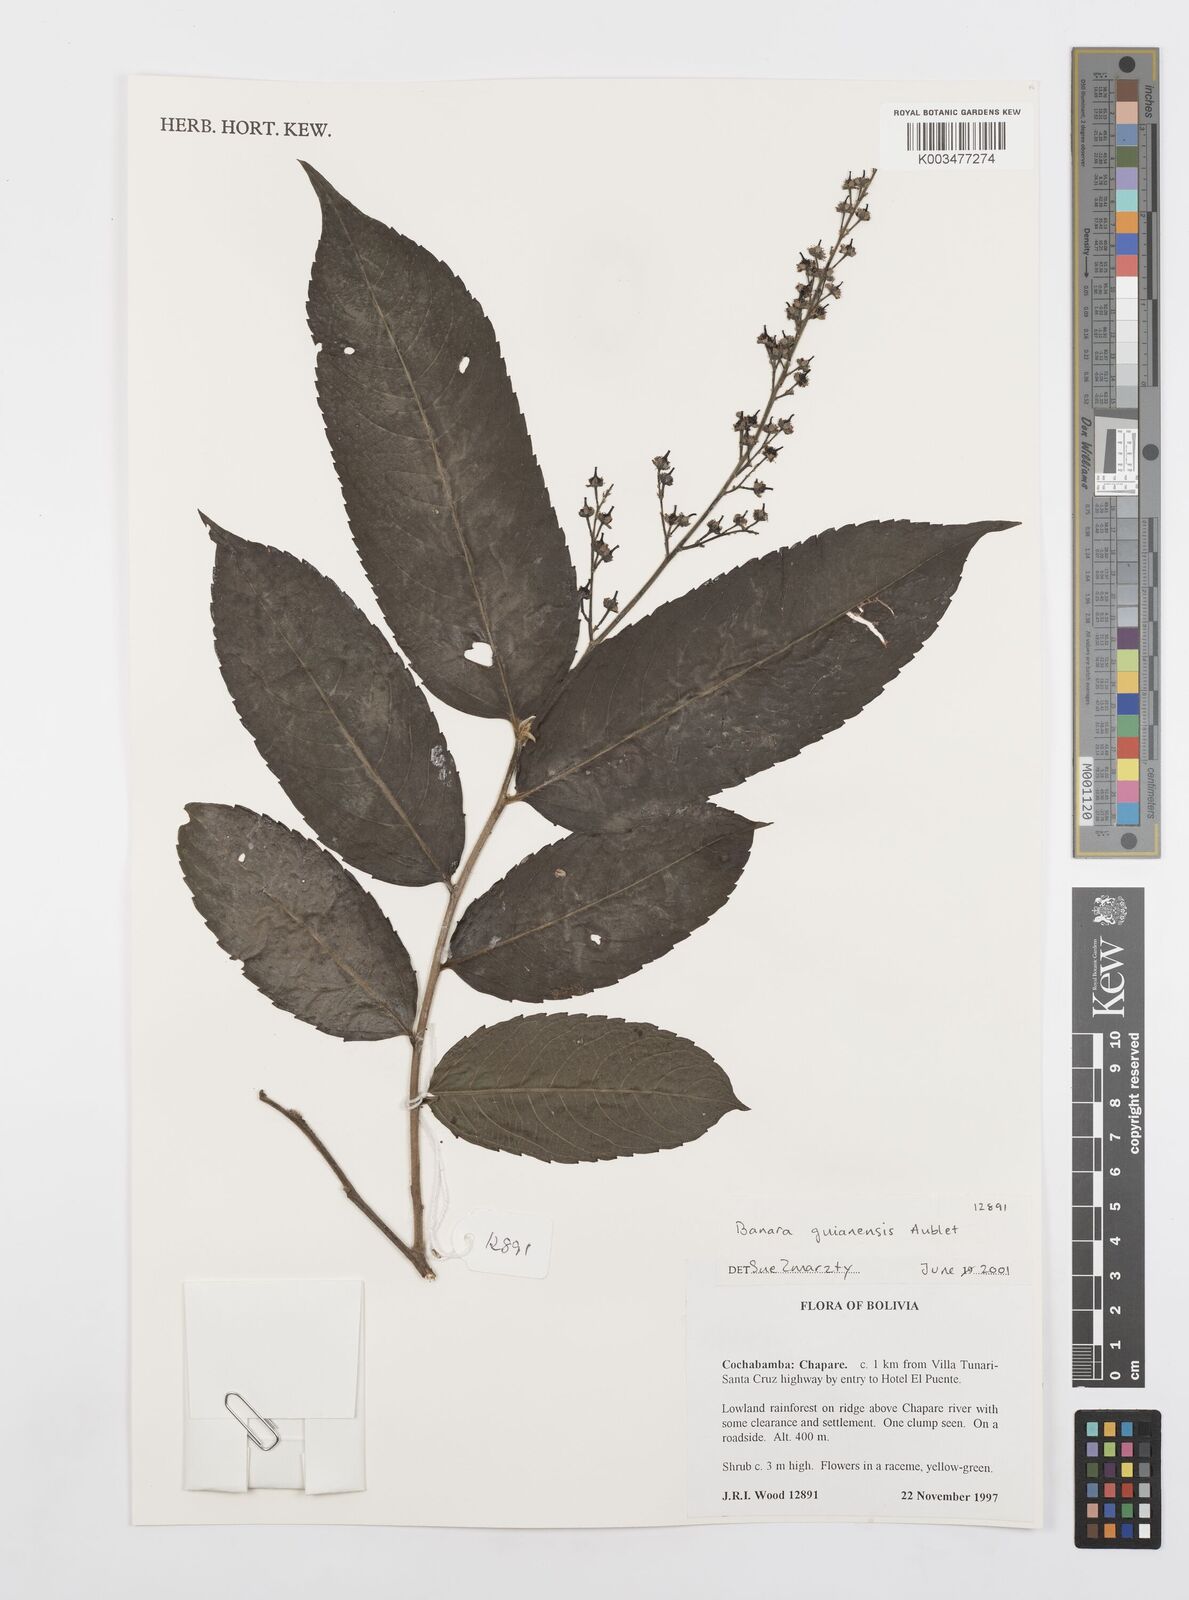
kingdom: Plantae
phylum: Tracheophyta
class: Magnoliopsida
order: Malpighiales
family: Salicaceae
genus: Banara
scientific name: Banara guianensis
